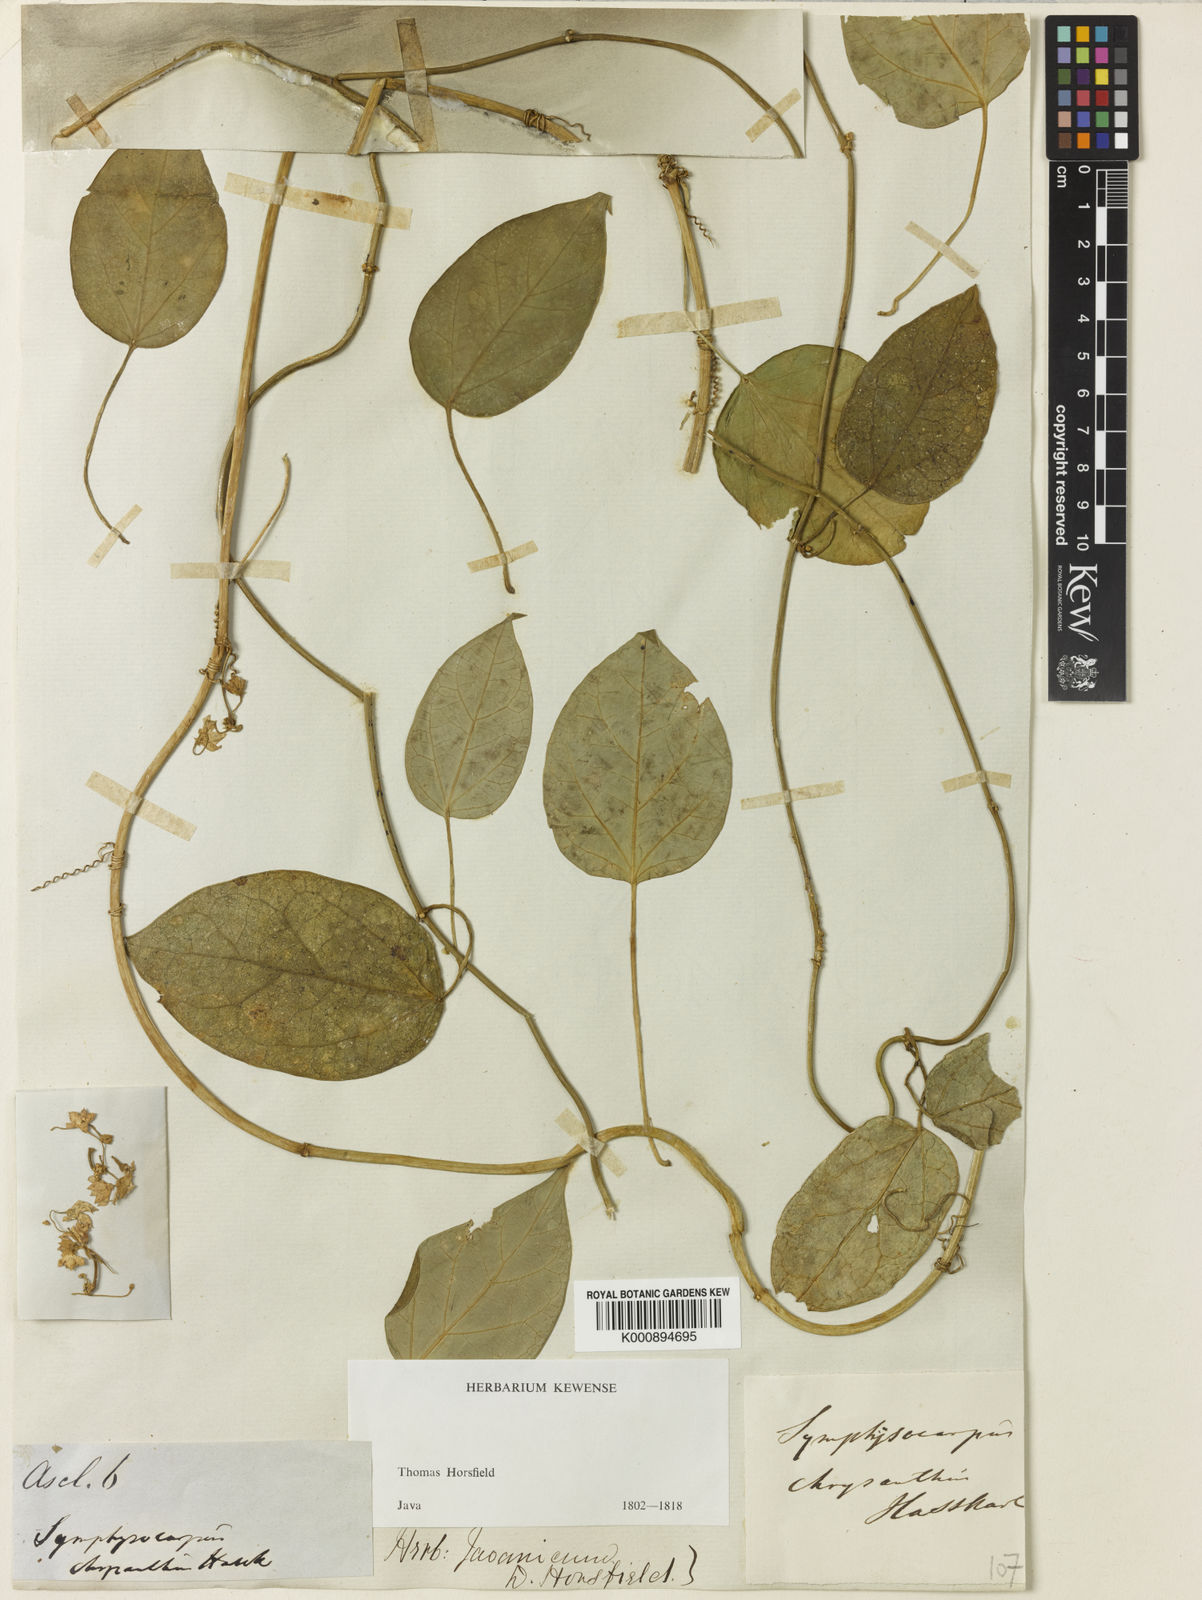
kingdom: Plantae
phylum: Tracheophyta
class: Magnoliopsida
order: Gentianales
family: Apocynaceae
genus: Heterostemma
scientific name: Heterostemma acuminatum
